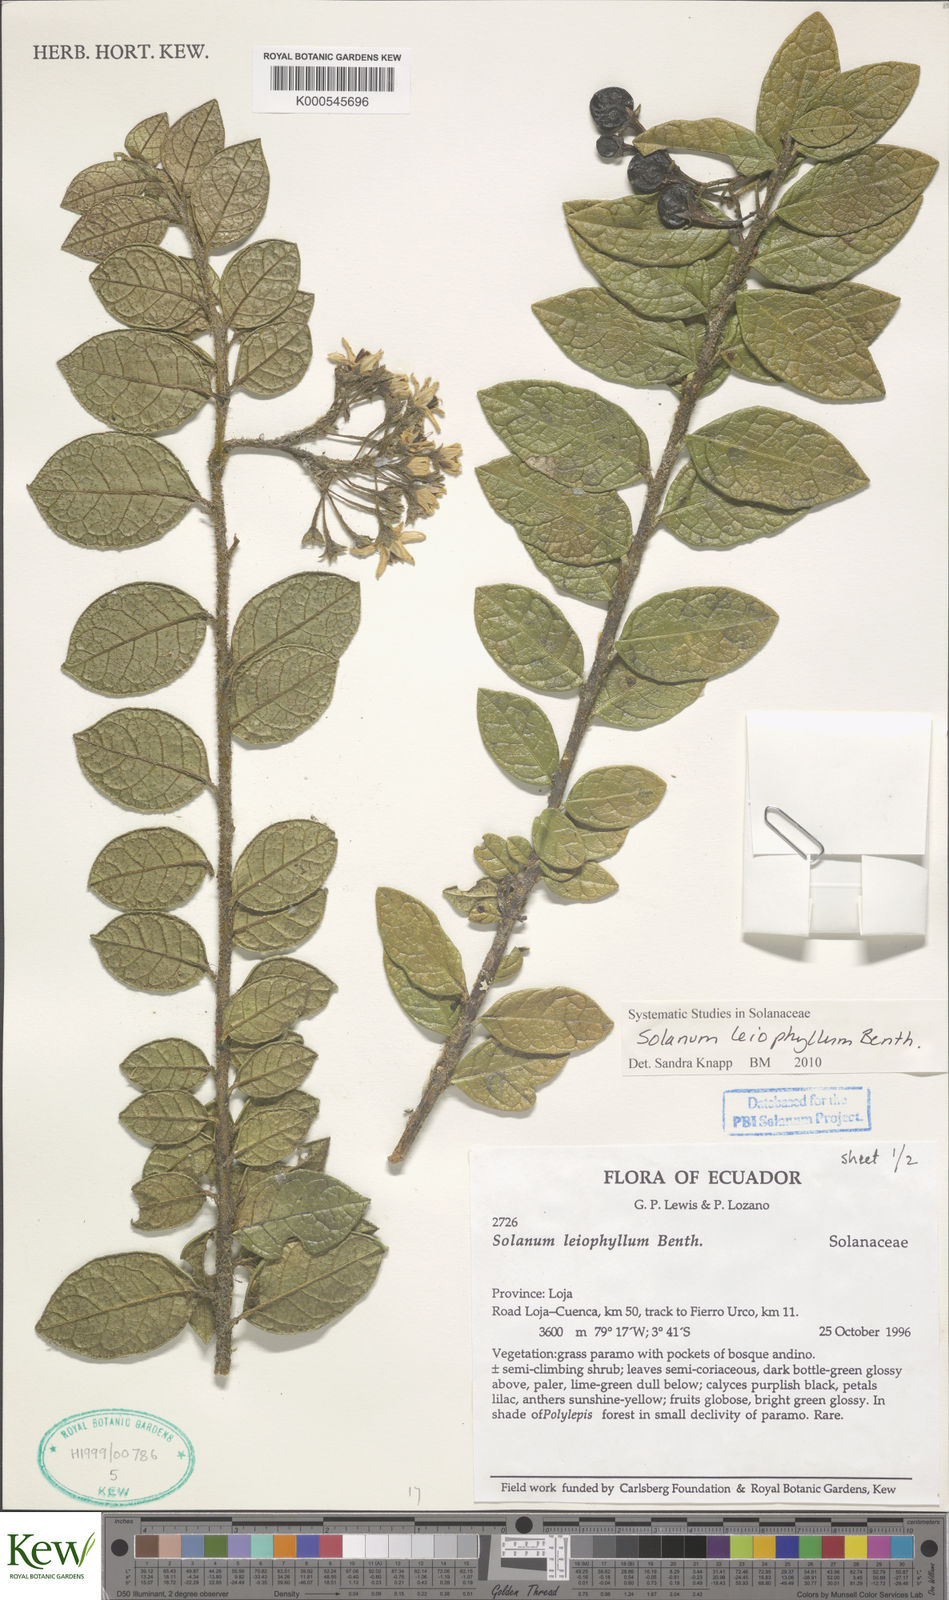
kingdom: Plantae
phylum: Tracheophyta
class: Magnoliopsida
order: Solanales
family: Solanaceae
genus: Solanum
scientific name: Solanum leiophyllum
